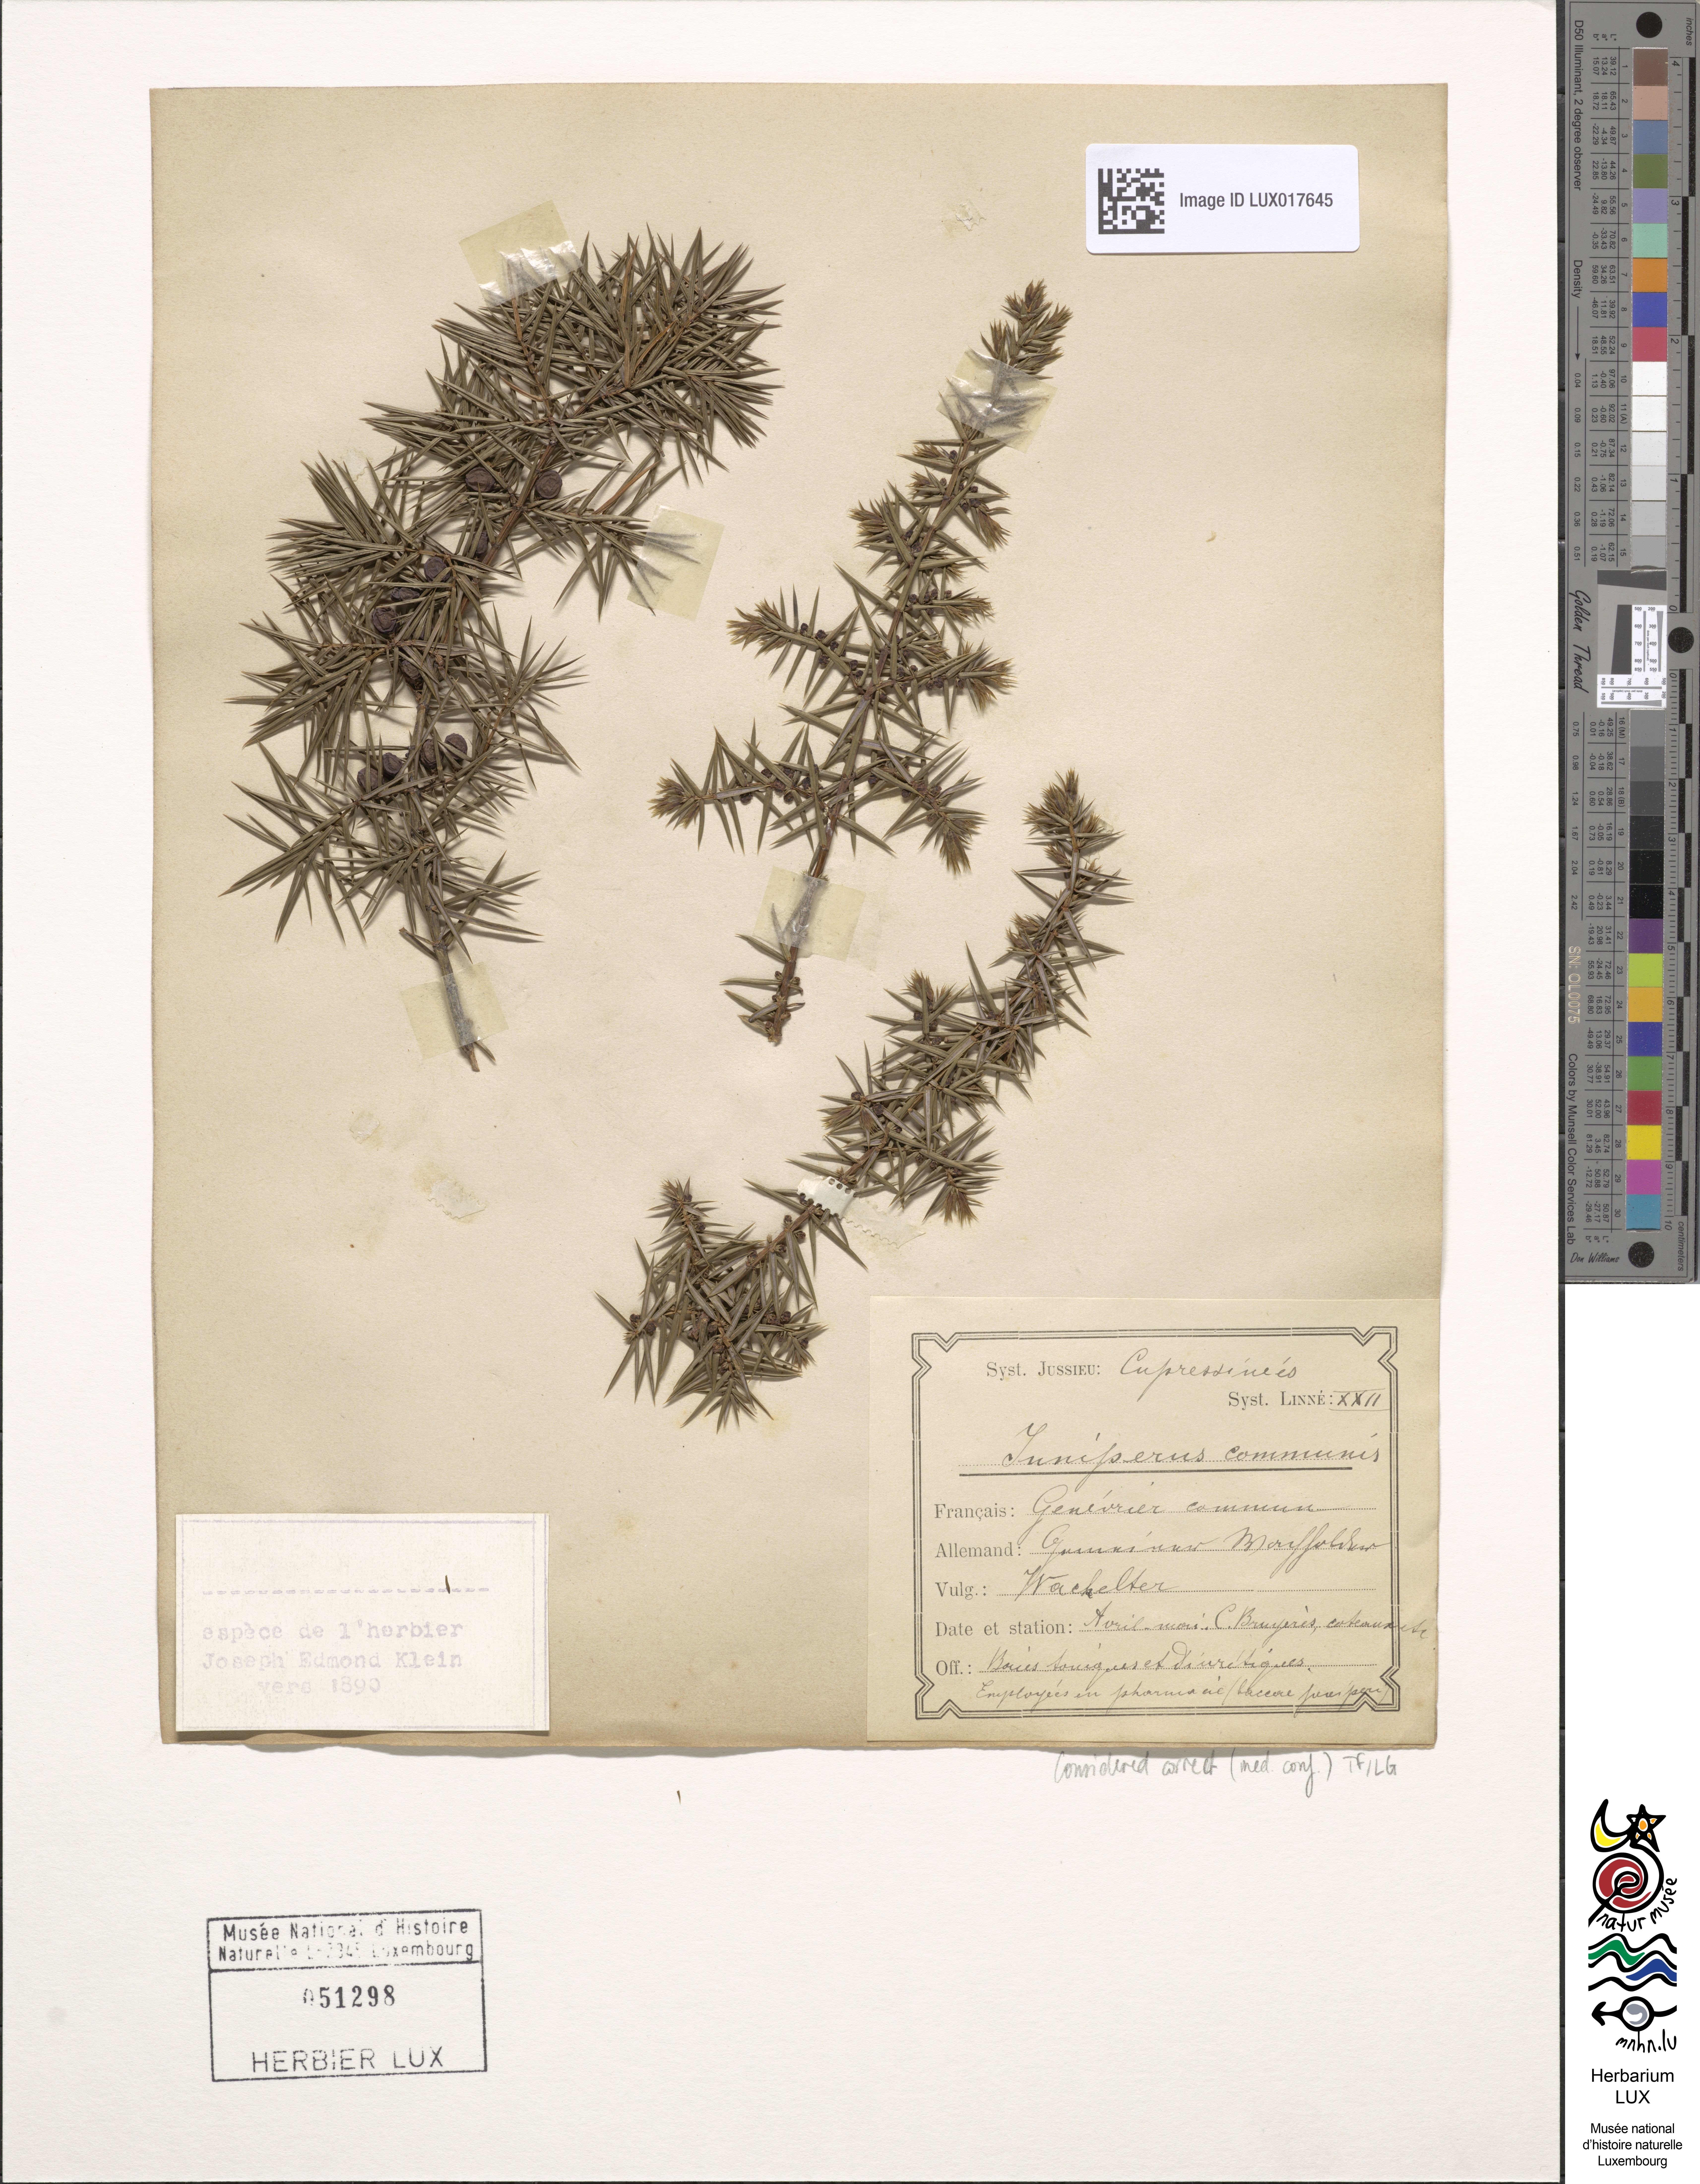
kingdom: Plantae
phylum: Tracheophyta
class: Pinopsida
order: Pinales
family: Cupressaceae
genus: Juniperus
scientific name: Juniperus communis
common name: Common juniper
